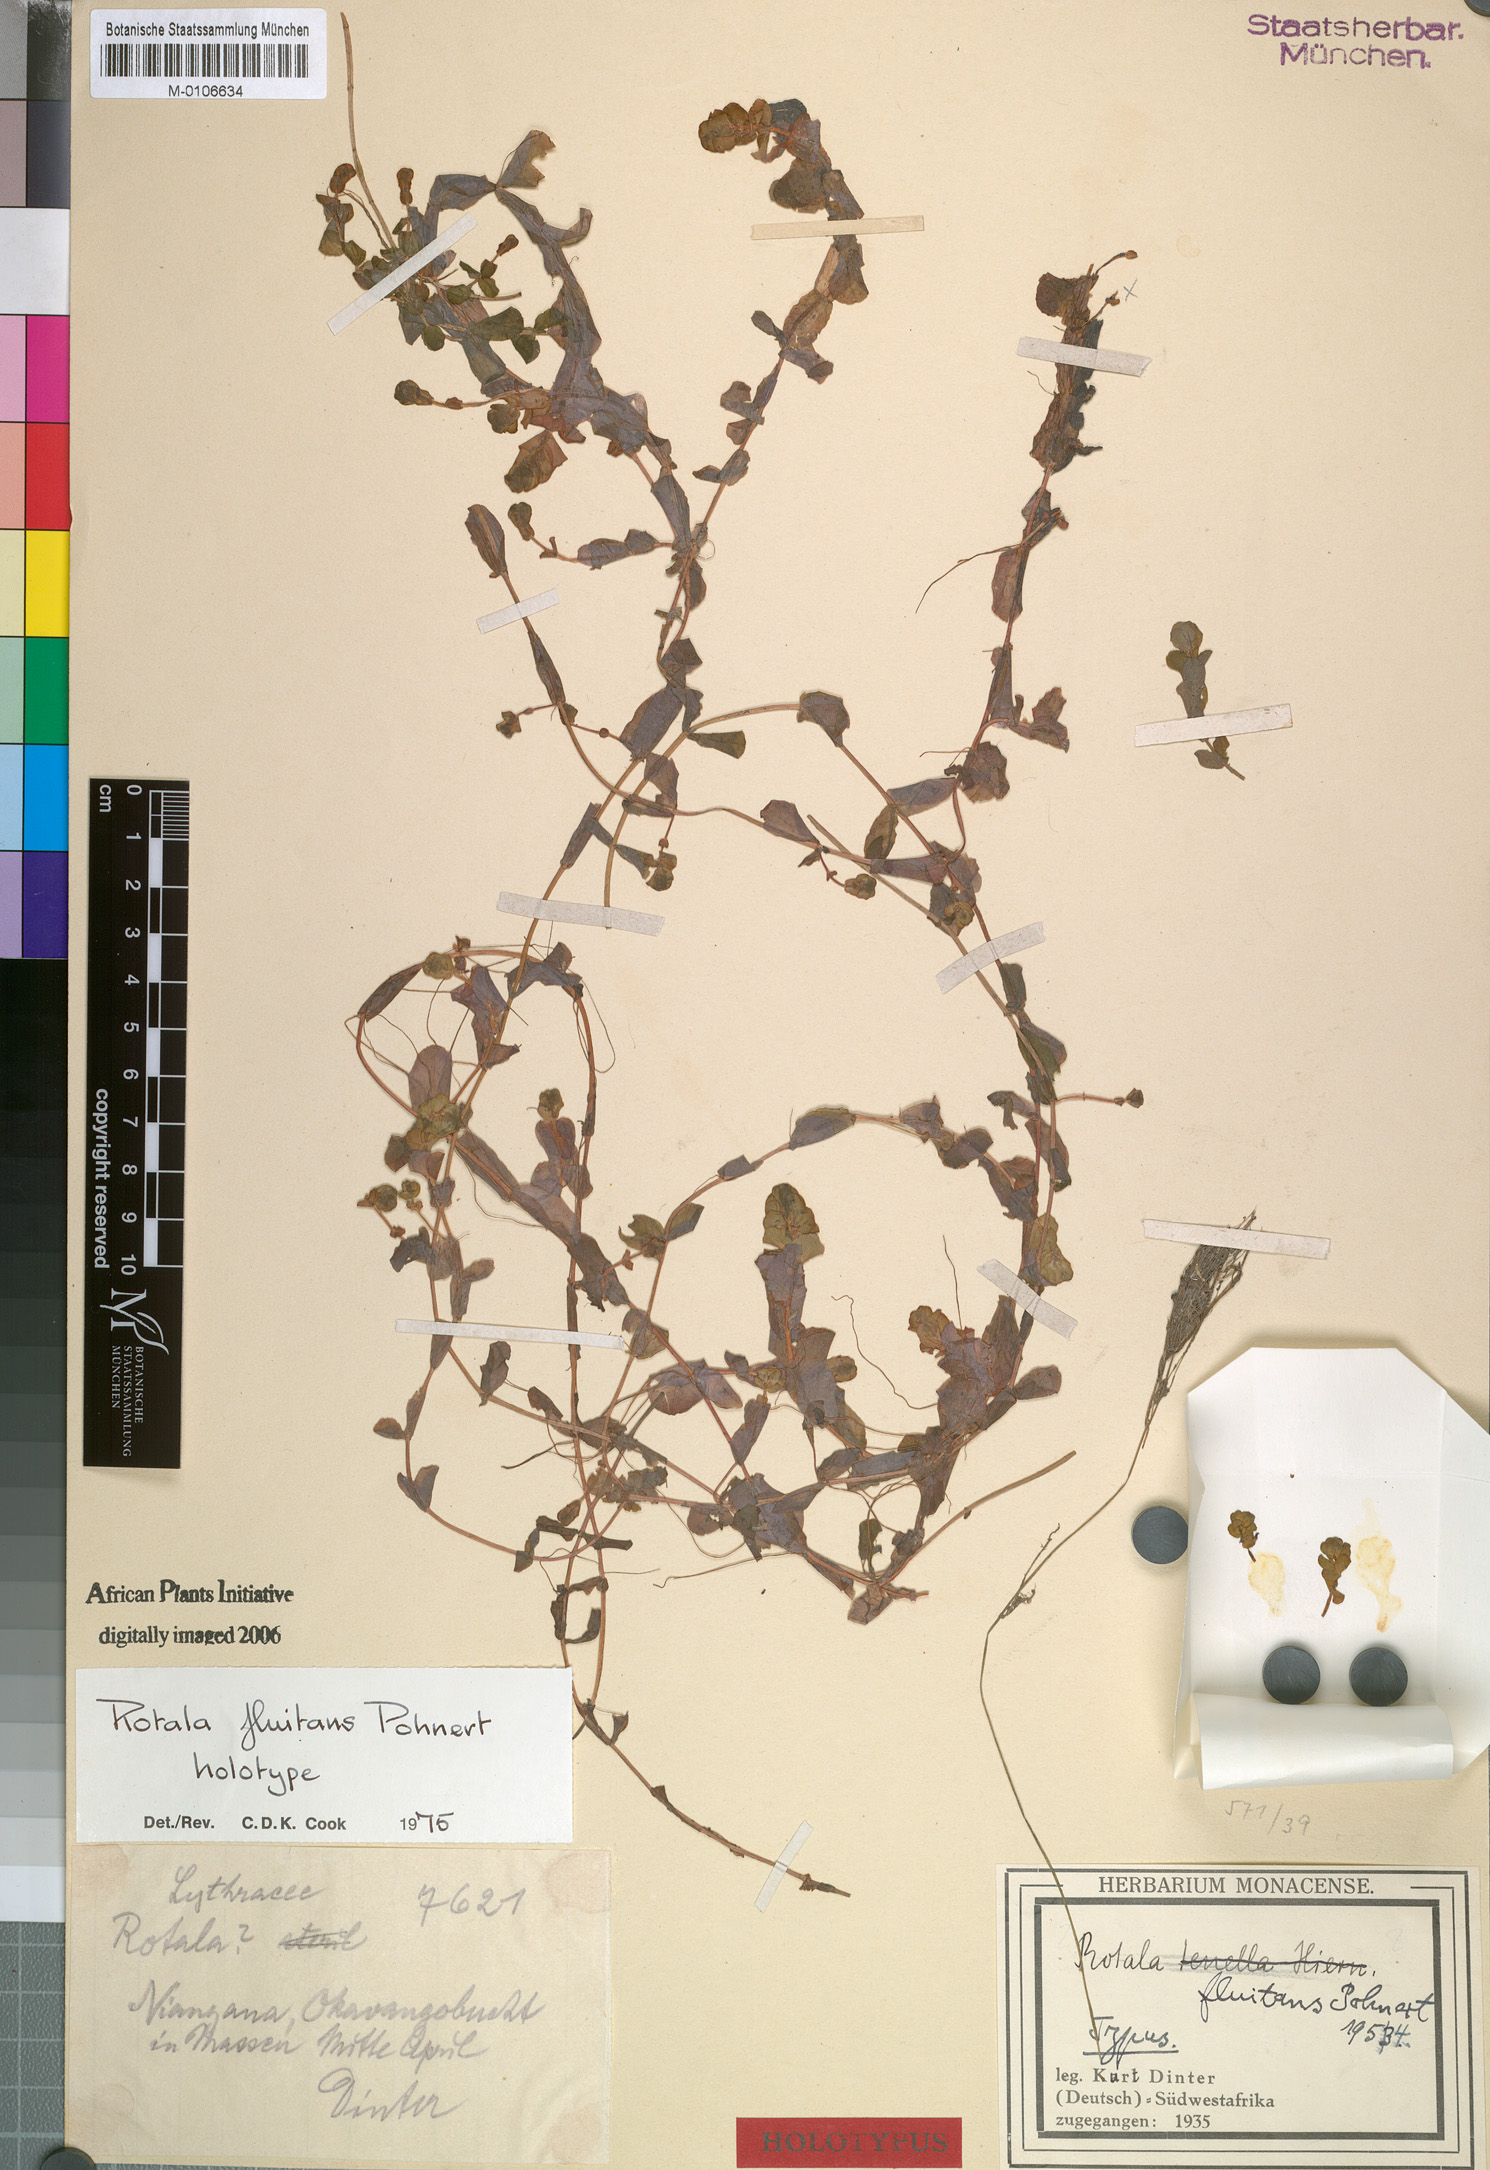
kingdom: Plantae
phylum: Tracheophyta
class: Magnoliopsida
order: Myrtales
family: Lythraceae
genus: Rotala
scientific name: Rotala fluitans
